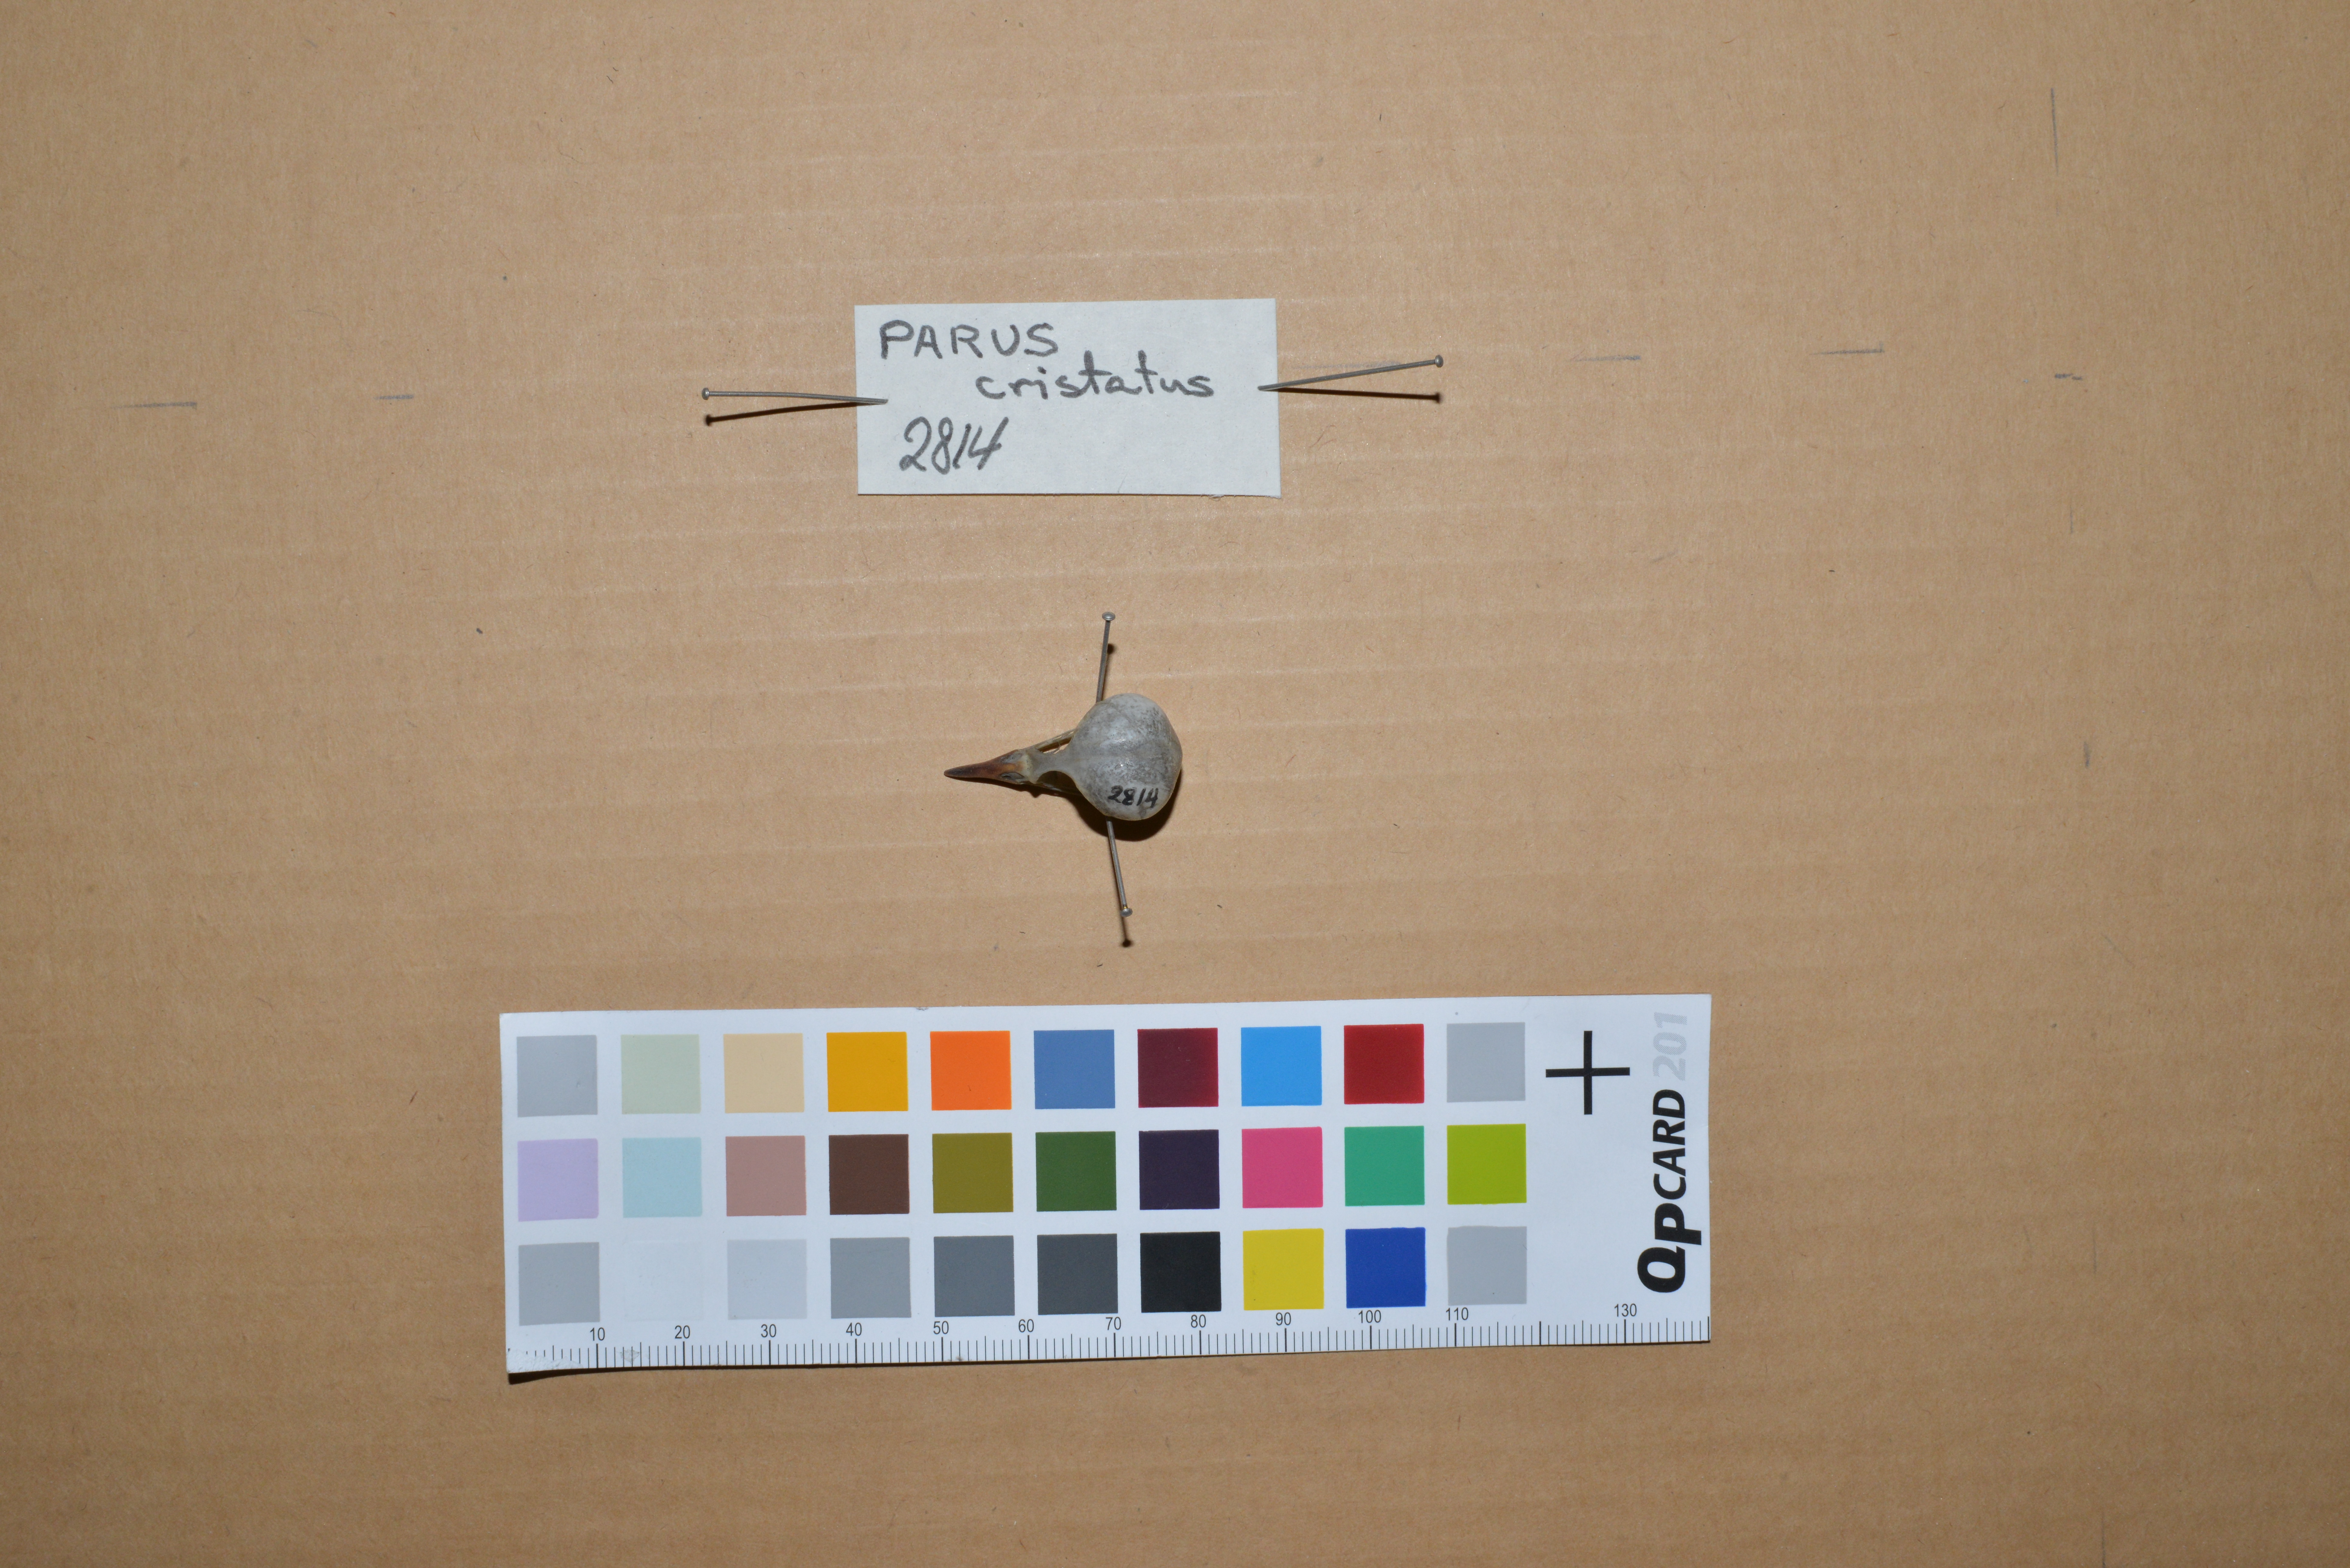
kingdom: Animalia
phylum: Chordata
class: Aves
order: Passeriformes
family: Paridae
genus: Lophophanes
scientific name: Lophophanes cristatus
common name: European crested tit
